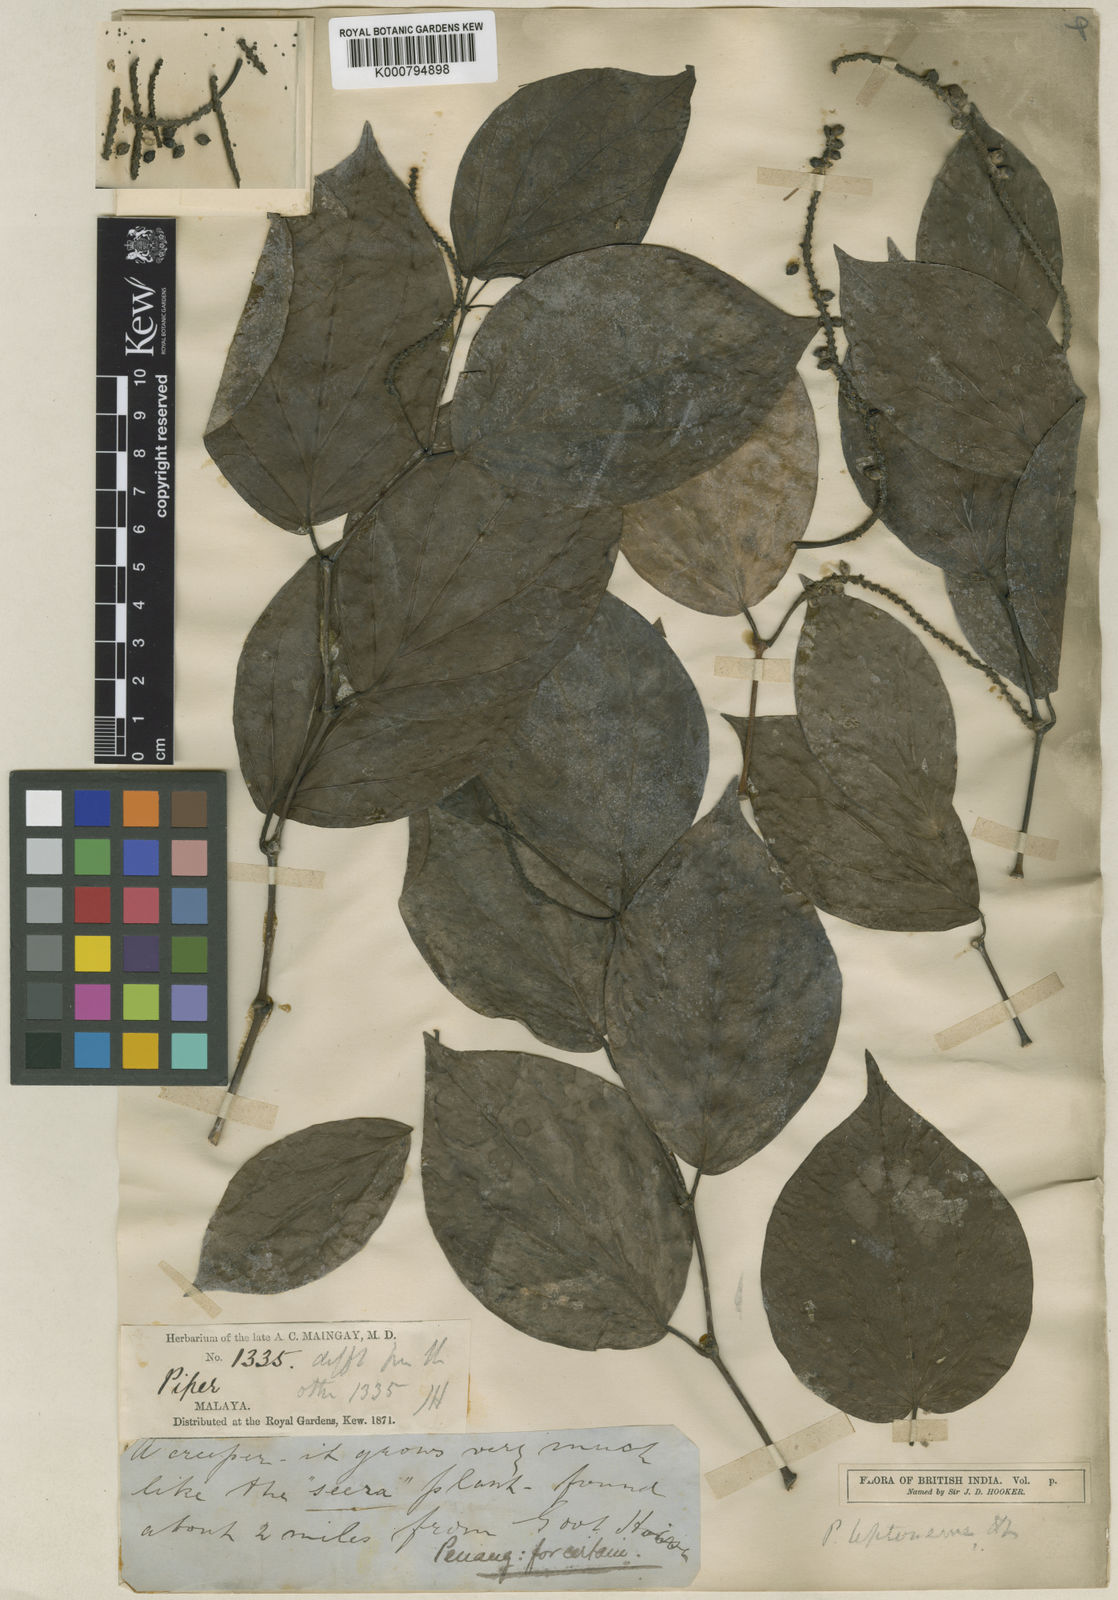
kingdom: Plantae
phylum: Tracheophyta
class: Magnoliopsida
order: Piperales
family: Piperaceae
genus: Piper
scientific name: Piper lonchites
